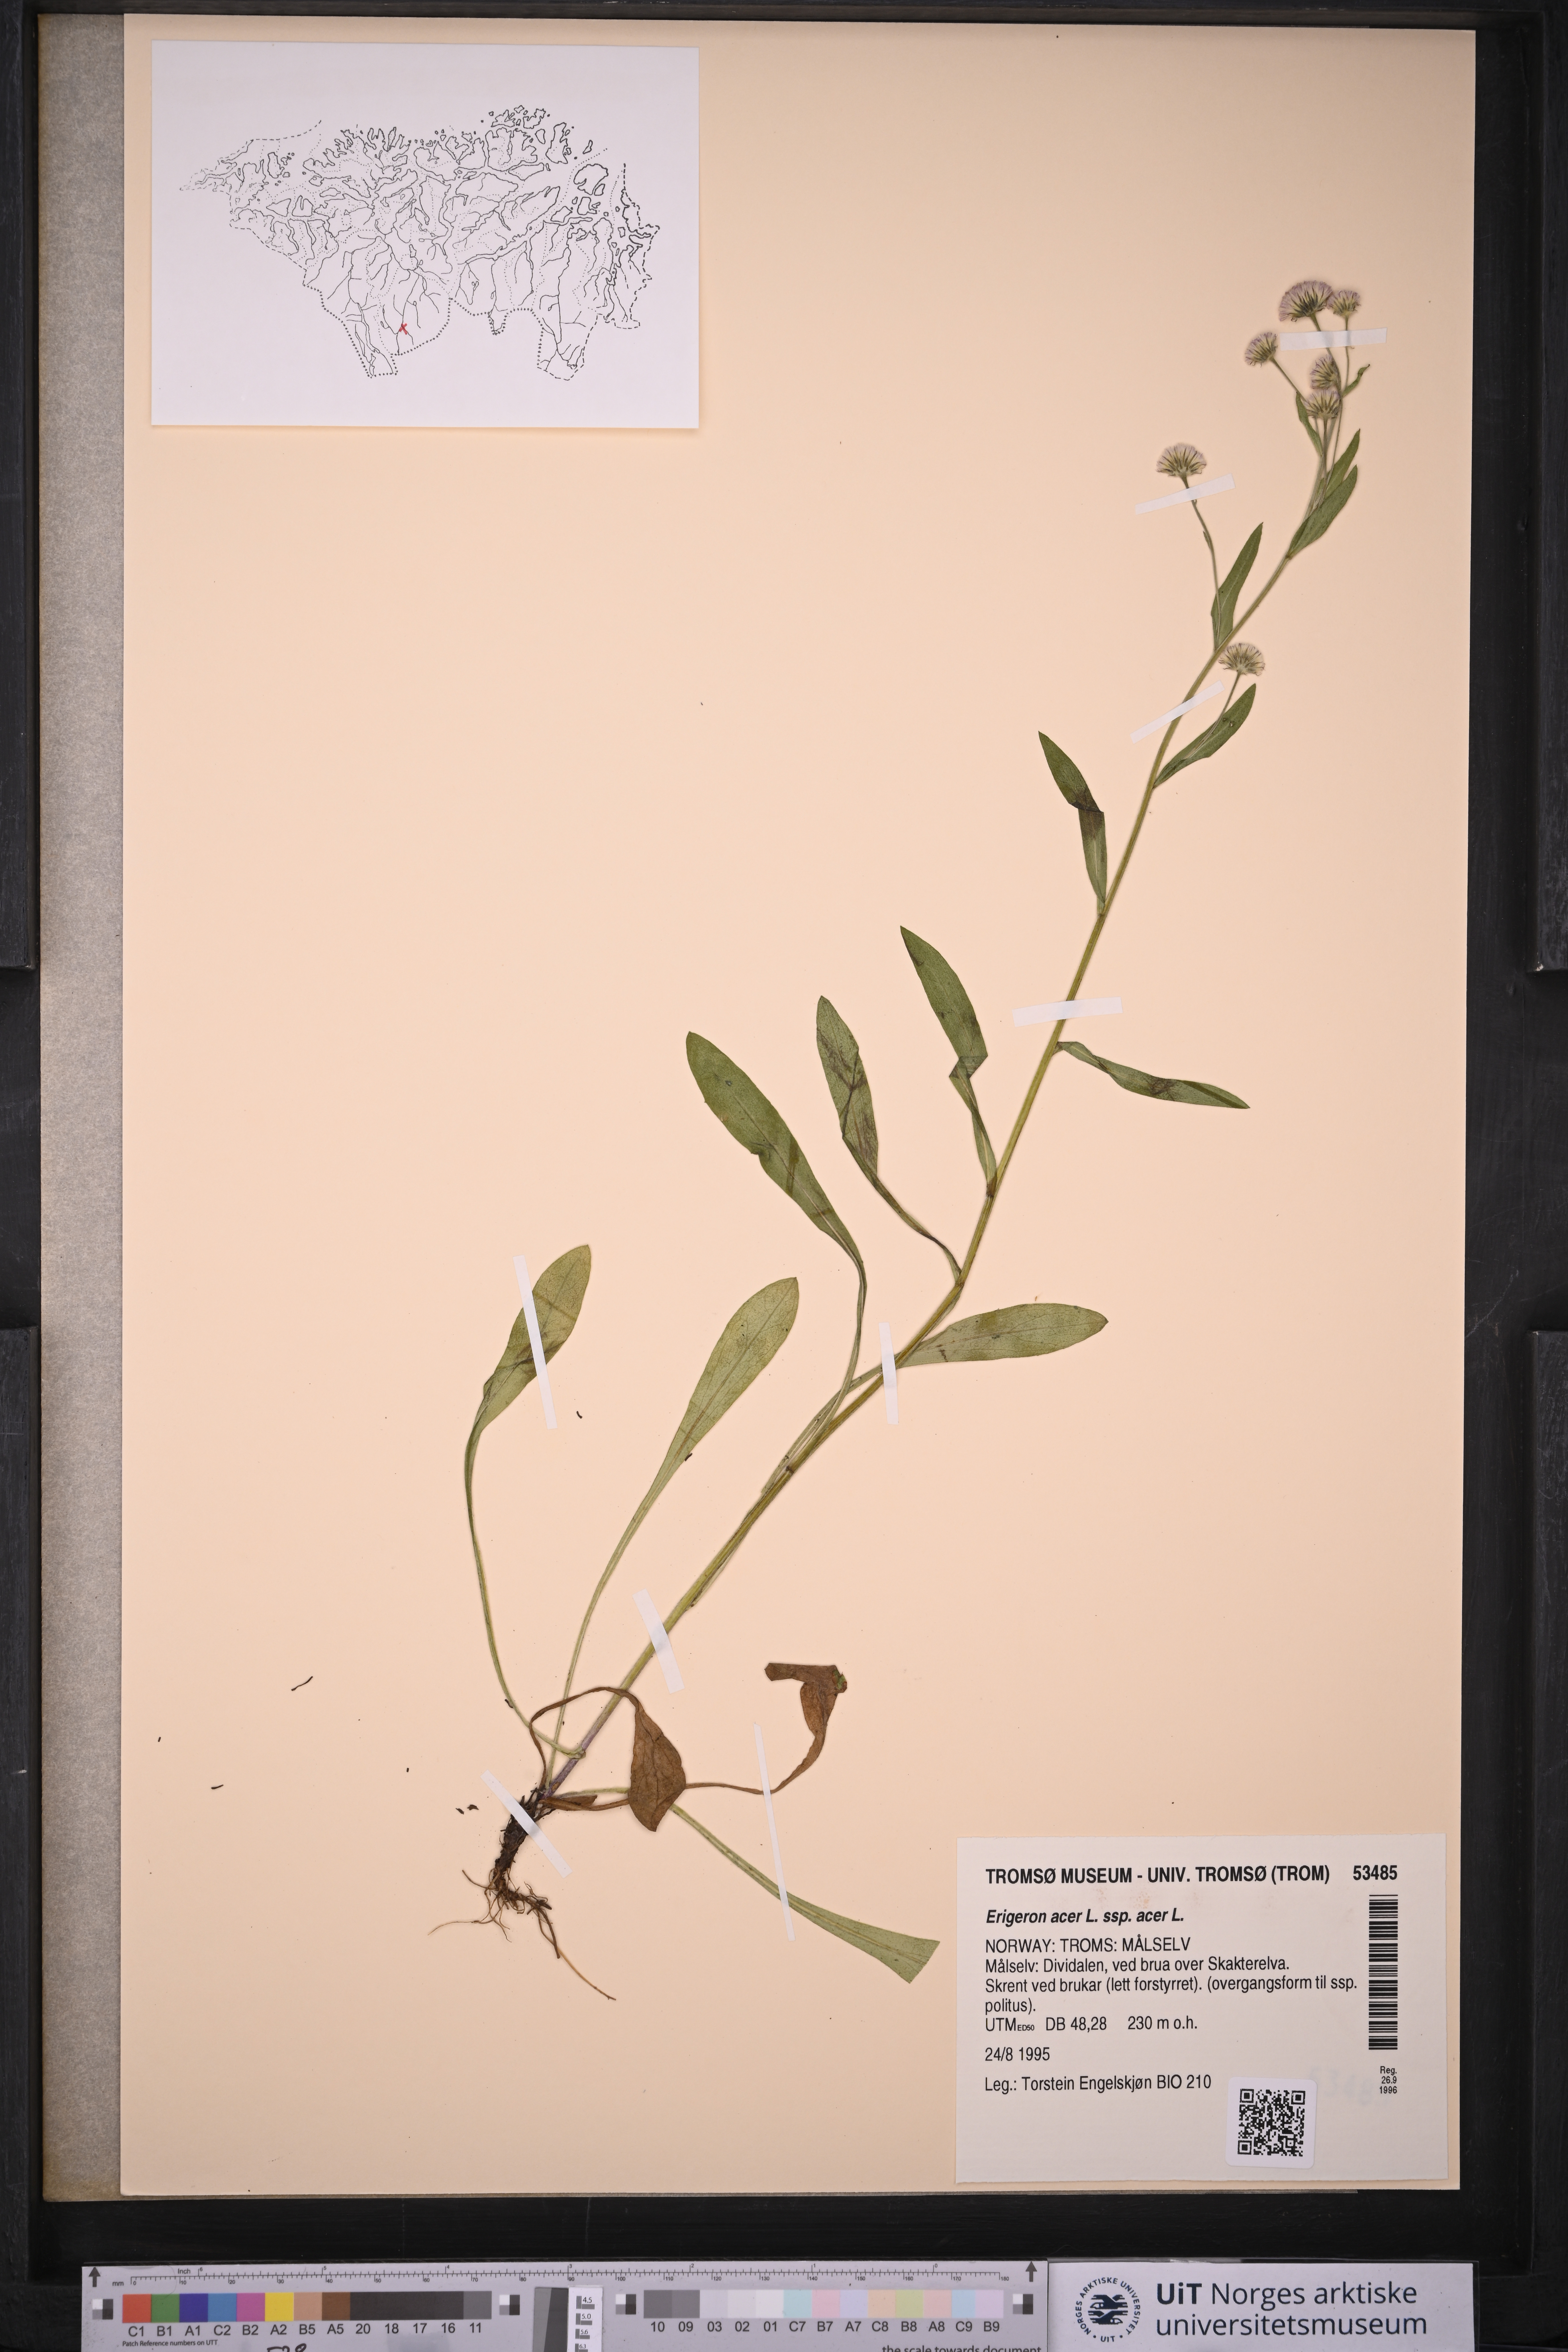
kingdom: Plantae
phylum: Tracheophyta
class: Magnoliopsida
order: Asterales
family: Asteraceae
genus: Erigeron
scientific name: Erigeron acris
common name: Blue fleabane
